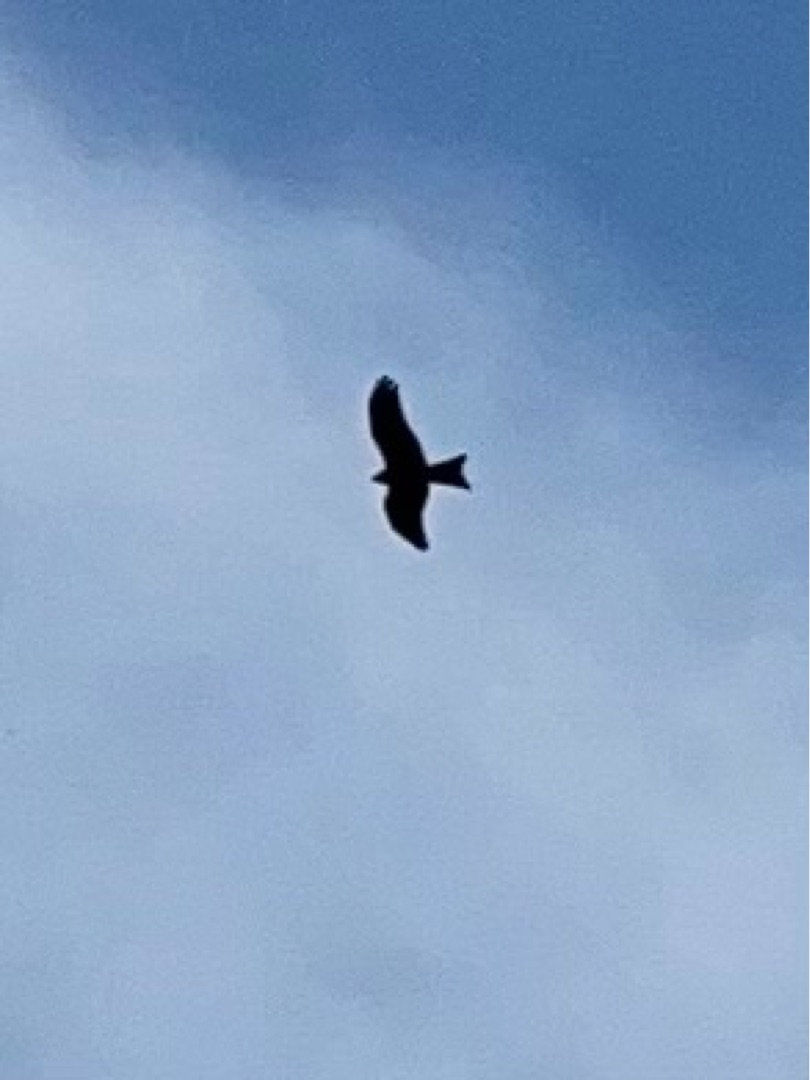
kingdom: Animalia
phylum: Chordata
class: Aves
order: Accipitriformes
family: Accipitridae
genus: Milvus
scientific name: Milvus milvus
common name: Rød glente
